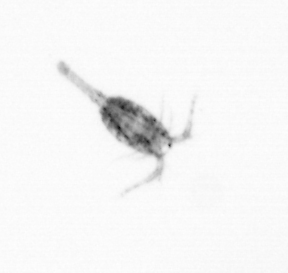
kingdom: Animalia
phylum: Arthropoda
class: Copepoda
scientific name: Copepoda
